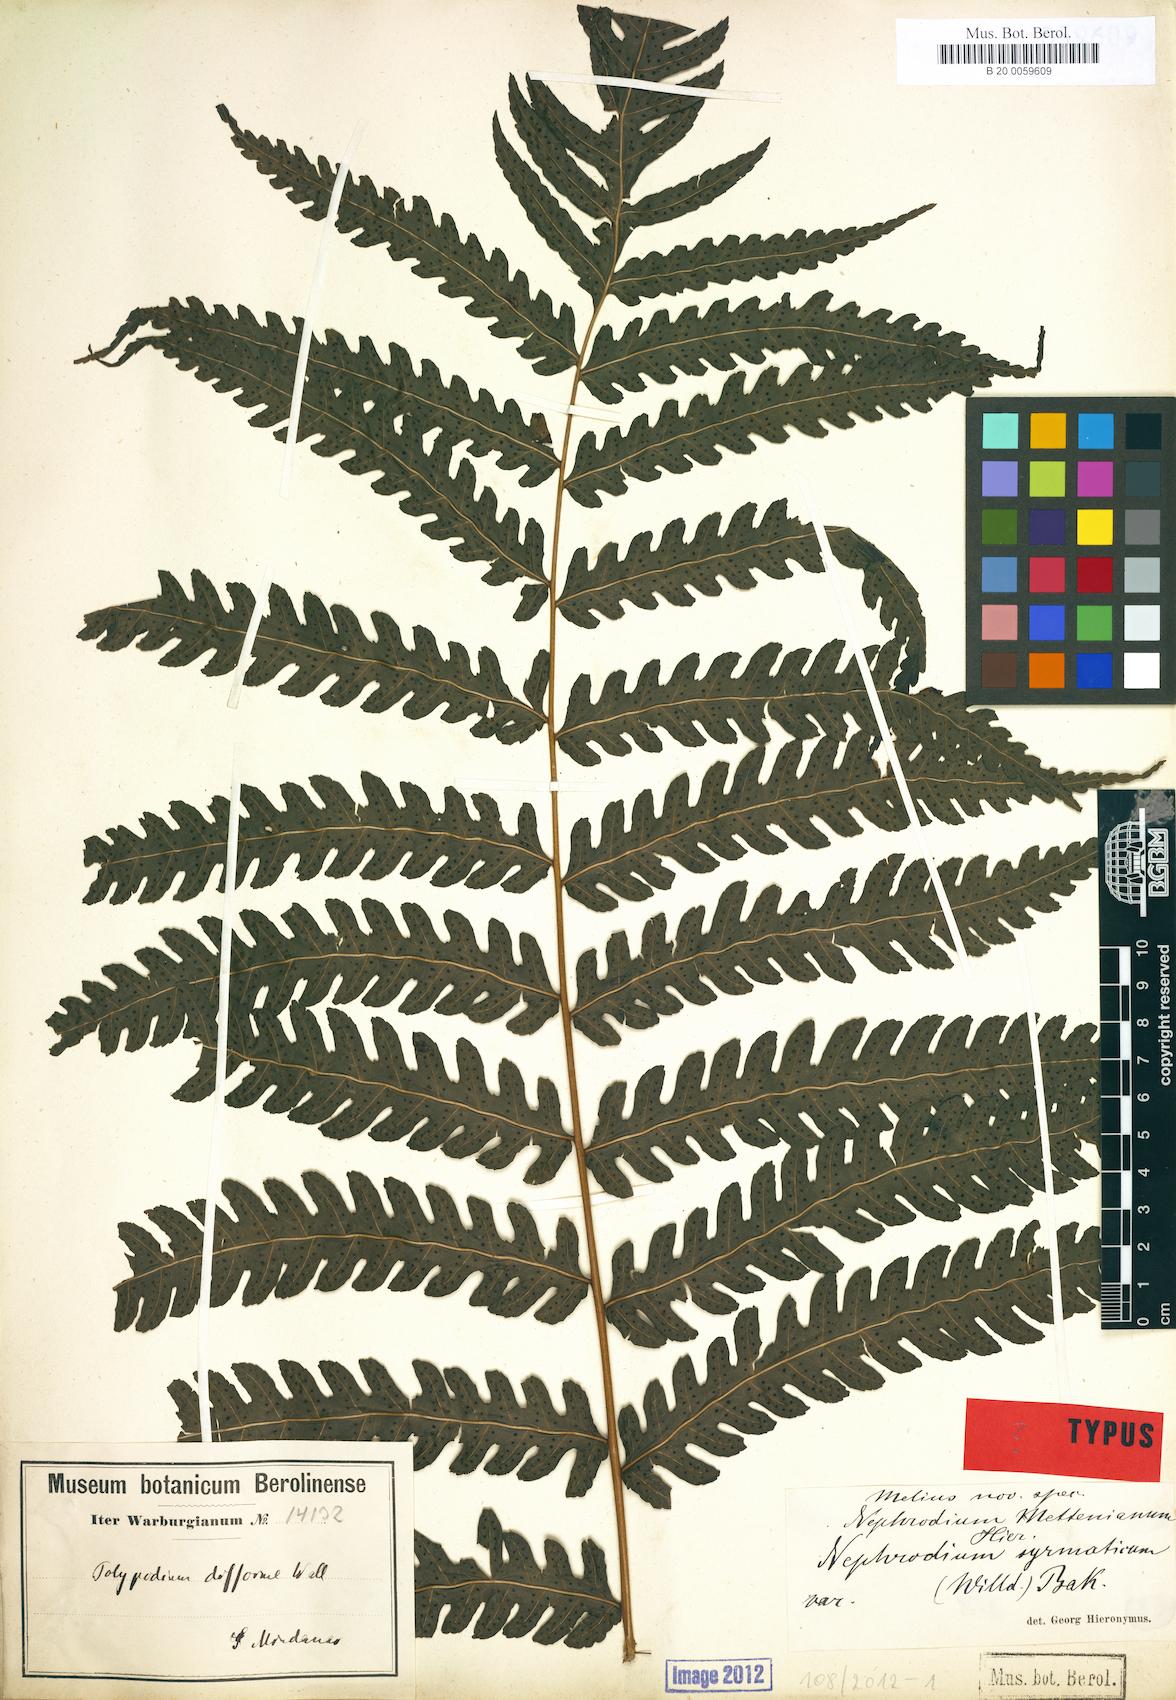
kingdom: Plantae
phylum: Tracheophyta
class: Polypodiopsida
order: Polypodiales
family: Dryopteridaceae
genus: Polystichum
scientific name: Polystichum multifidum
